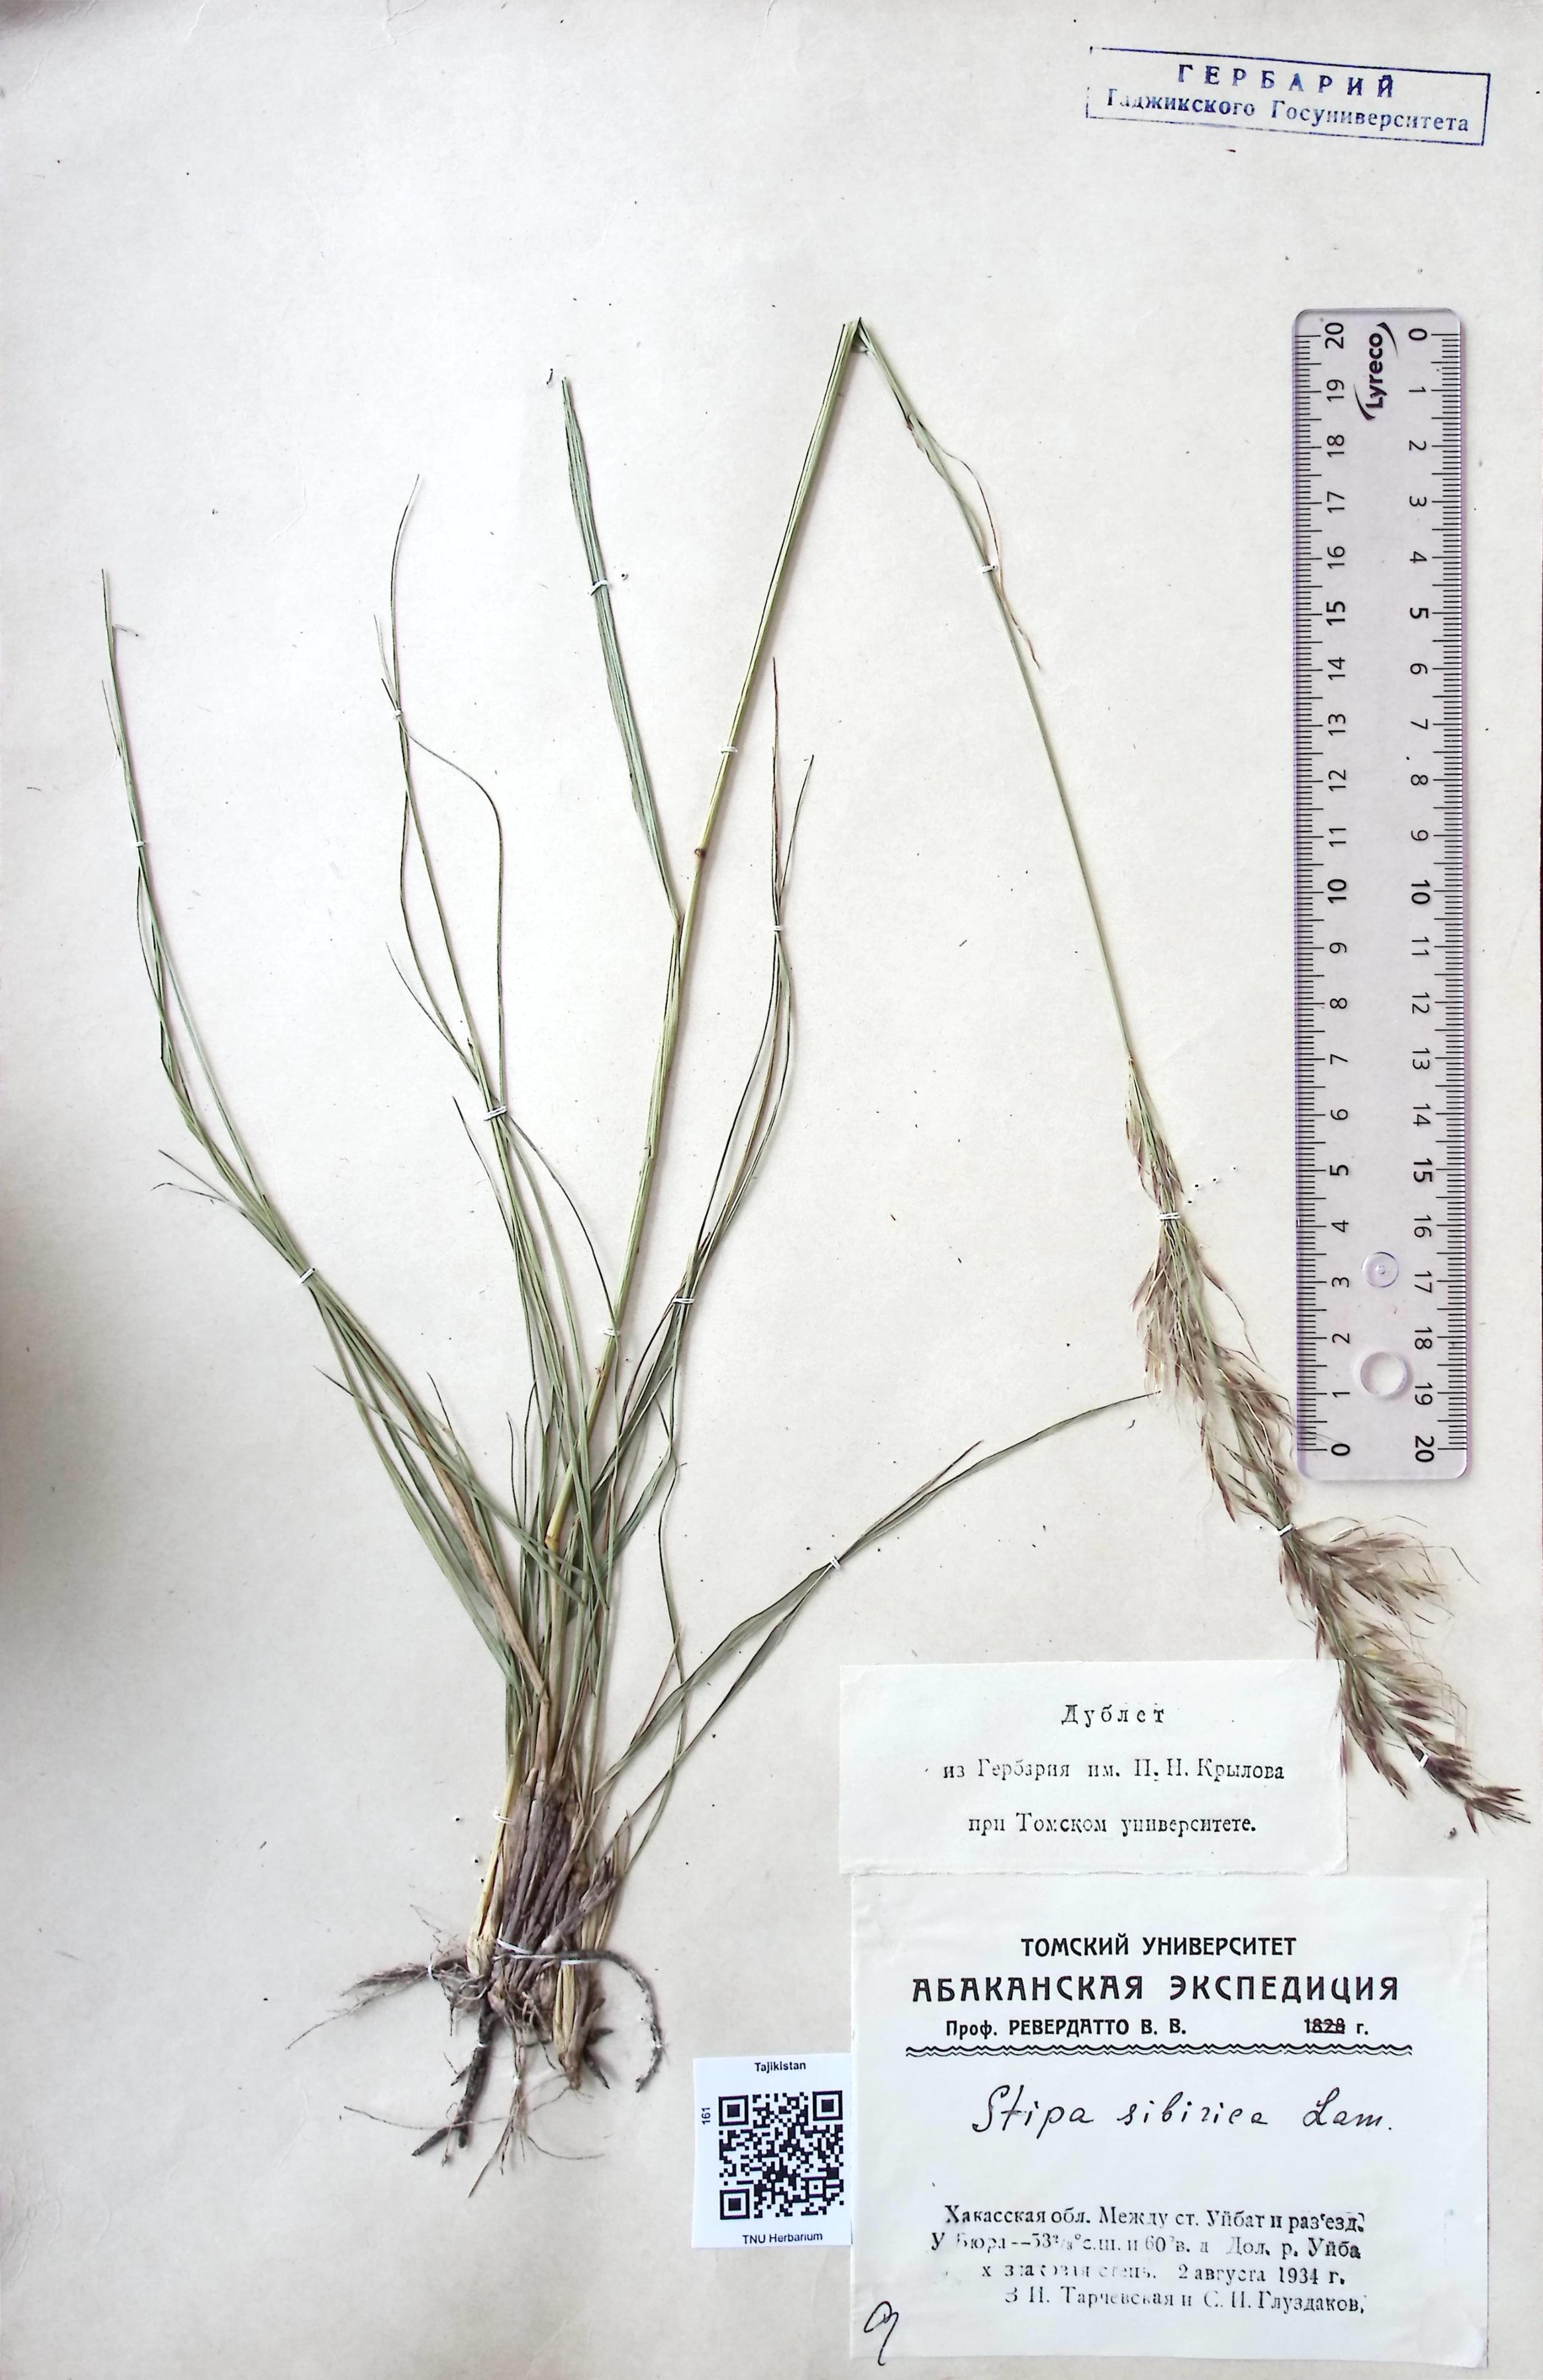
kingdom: Plantae
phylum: Tracheophyta
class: Liliopsida
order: Poales
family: Poaceae
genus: Achnatherum
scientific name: Achnatherum sibiricum
